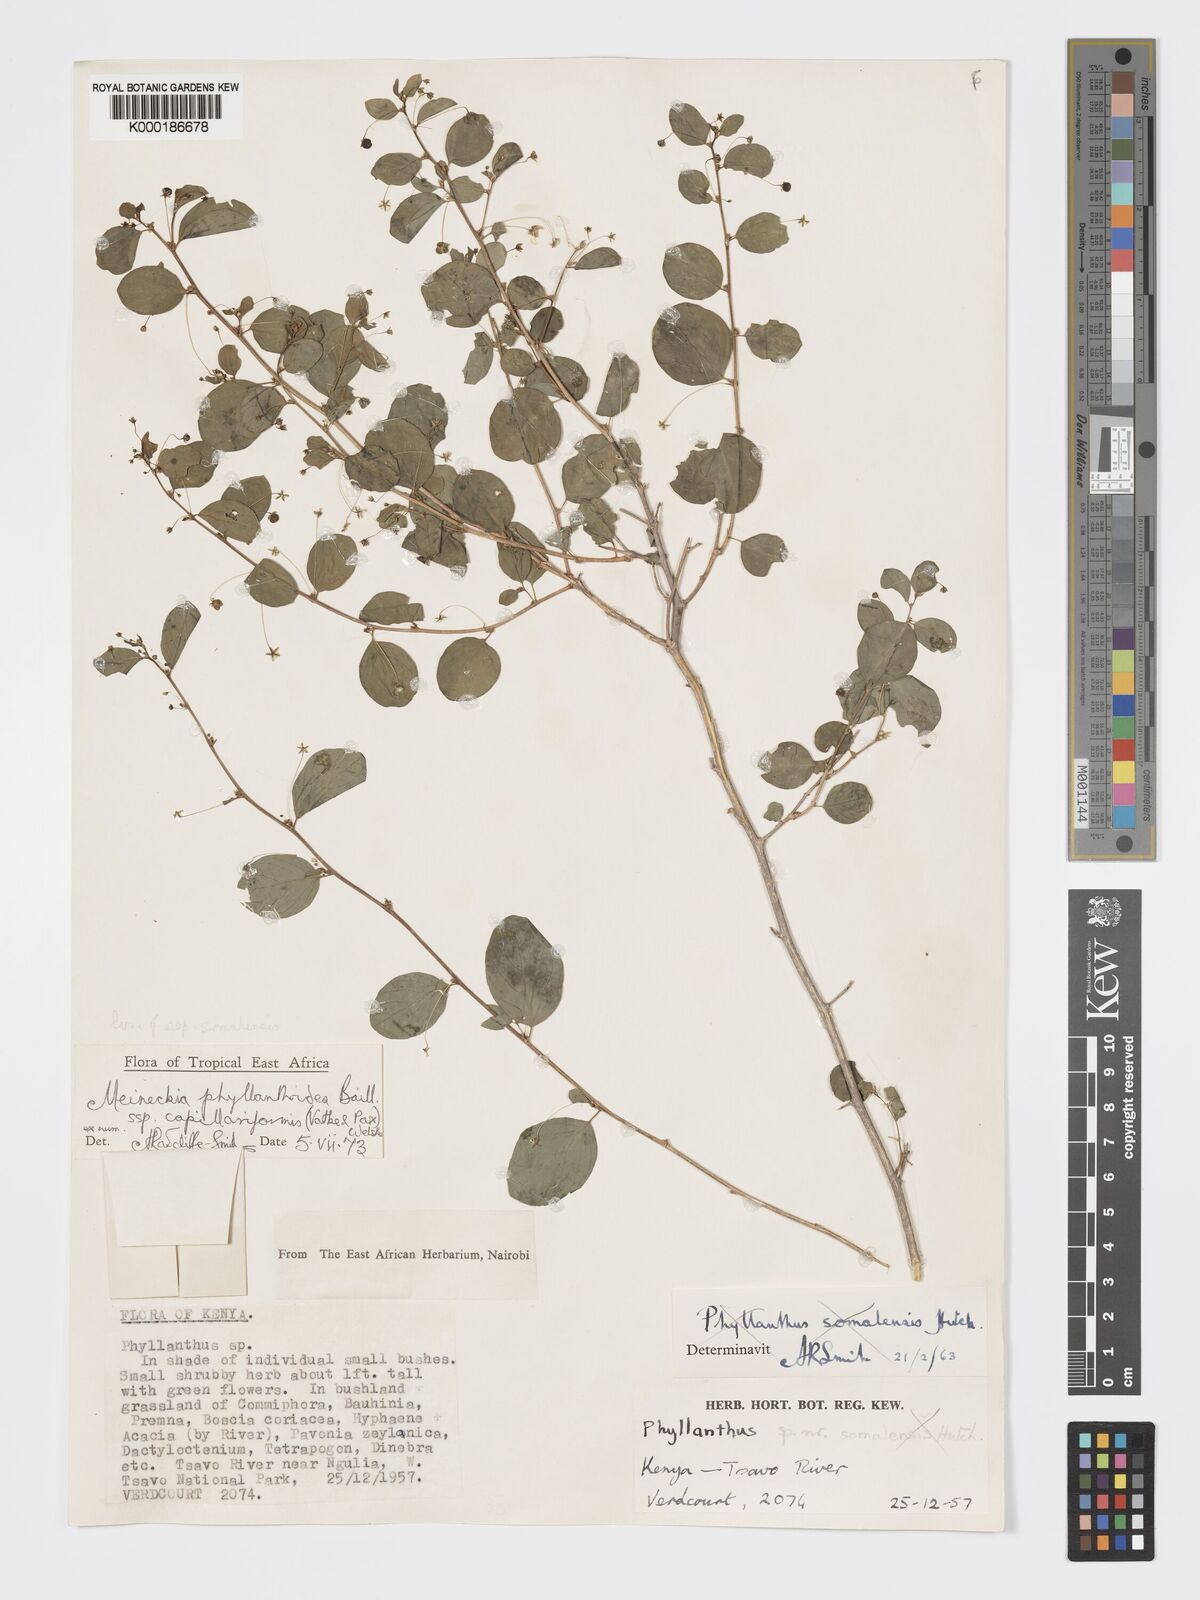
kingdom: Plantae
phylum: Tracheophyta
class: Magnoliopsida
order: Malpighiales
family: Phyllanthaceae
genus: Meineckia
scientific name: Meineckia phyllanthoides
